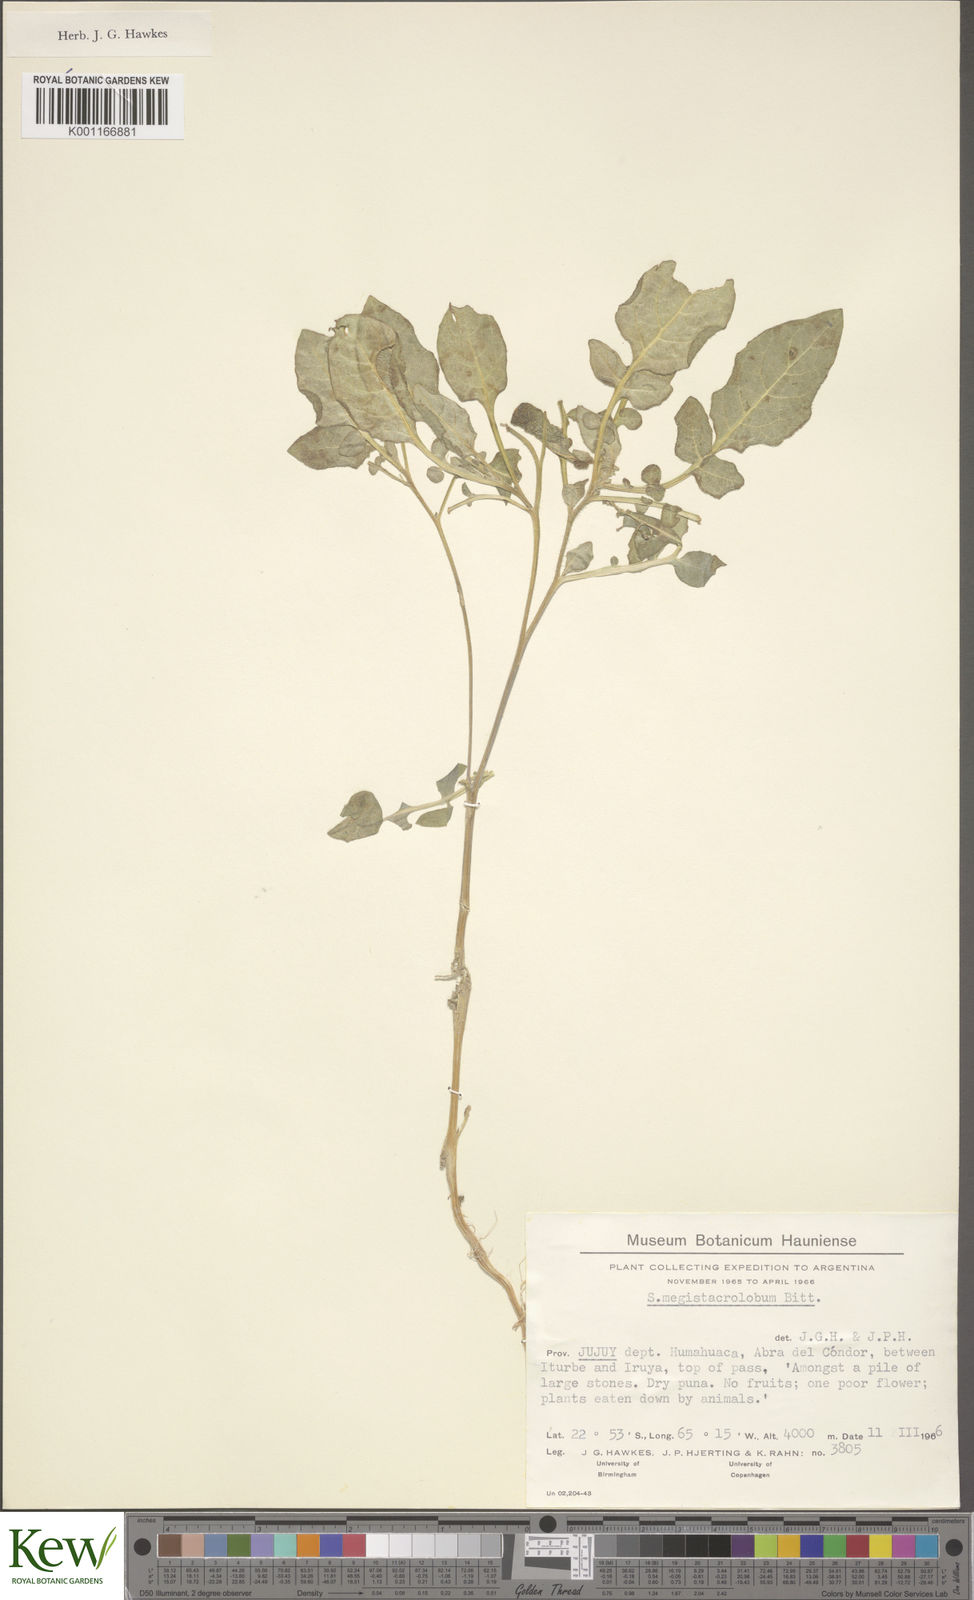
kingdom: Plantae
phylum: Tracheophyta
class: Magnoliopsida
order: Solanales
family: Solanaceae
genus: Solanum
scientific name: Solanum boliviense
